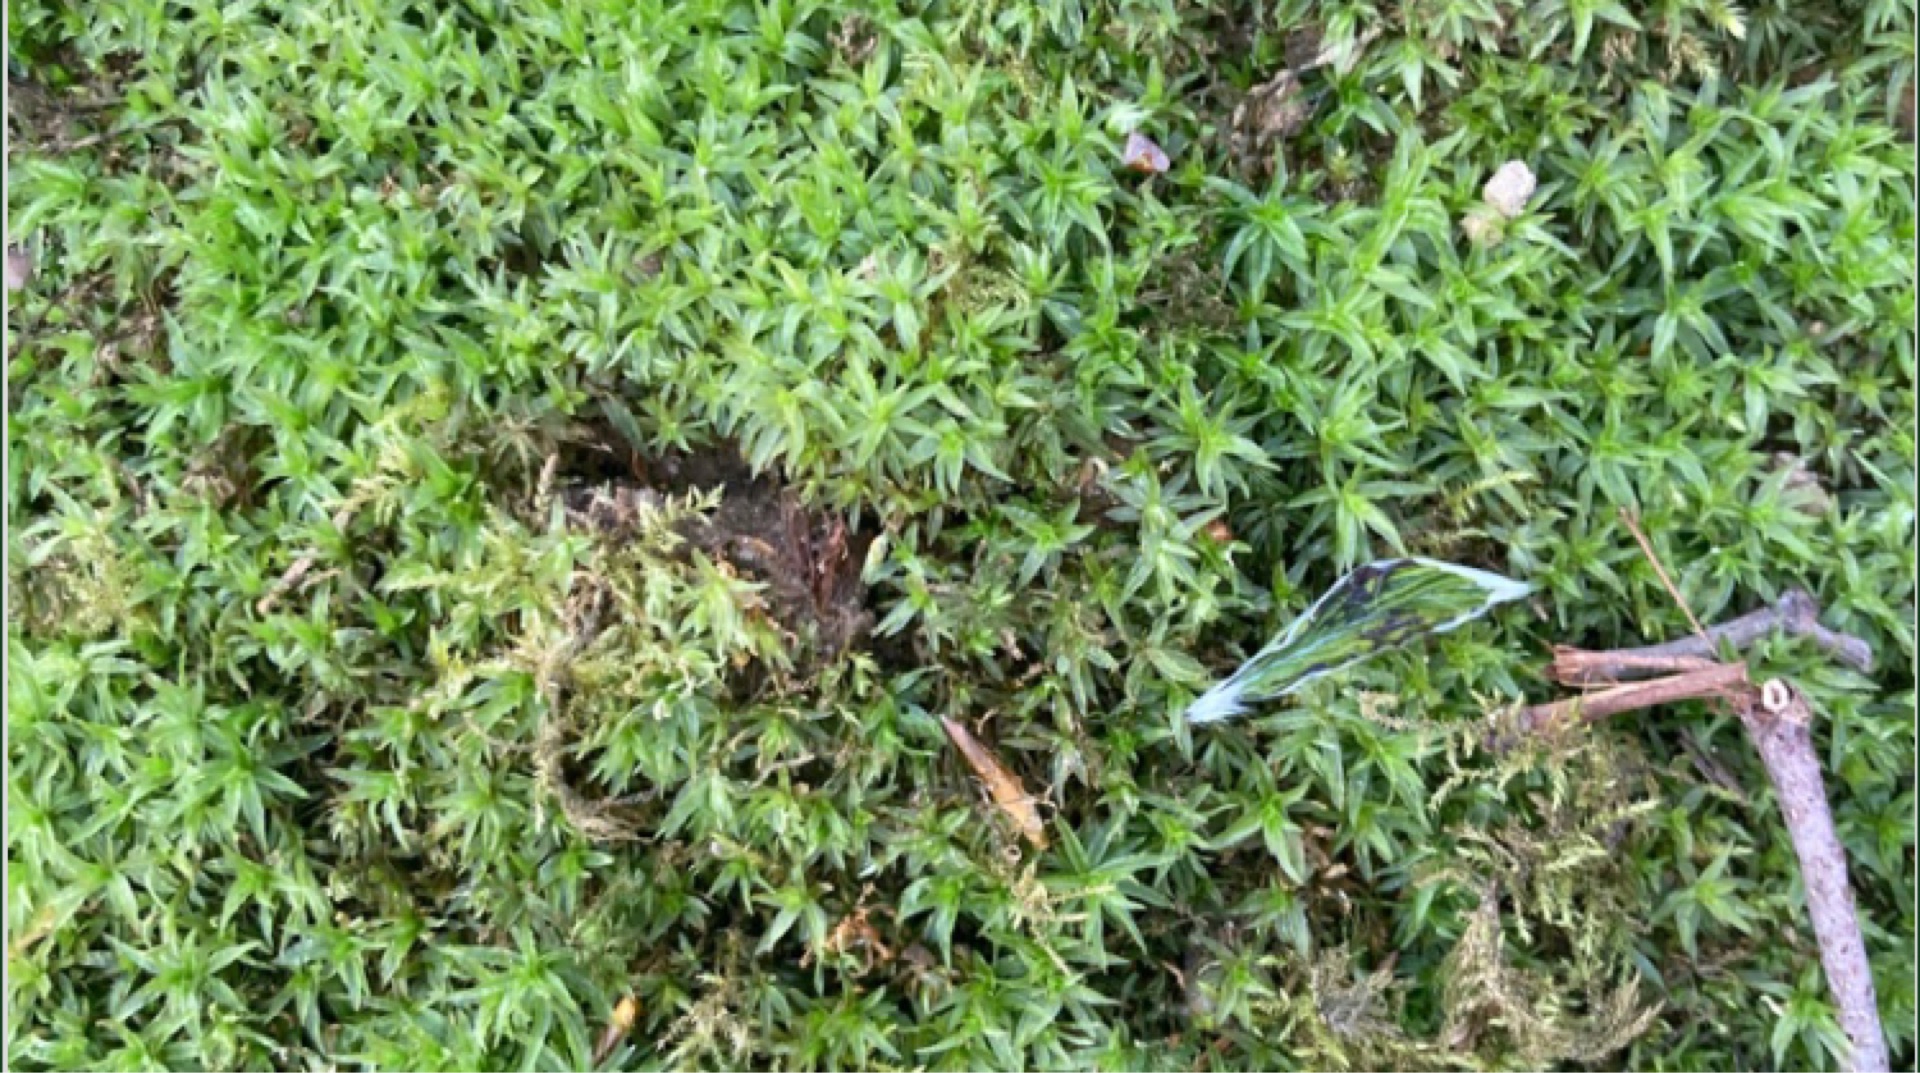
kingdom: Plantae
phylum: Bryophyta
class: Polytrichopsida
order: Polytrichales
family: Polytrichaceae
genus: Atrichum
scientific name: Atrichum undulatum
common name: Bølget katrinemos
